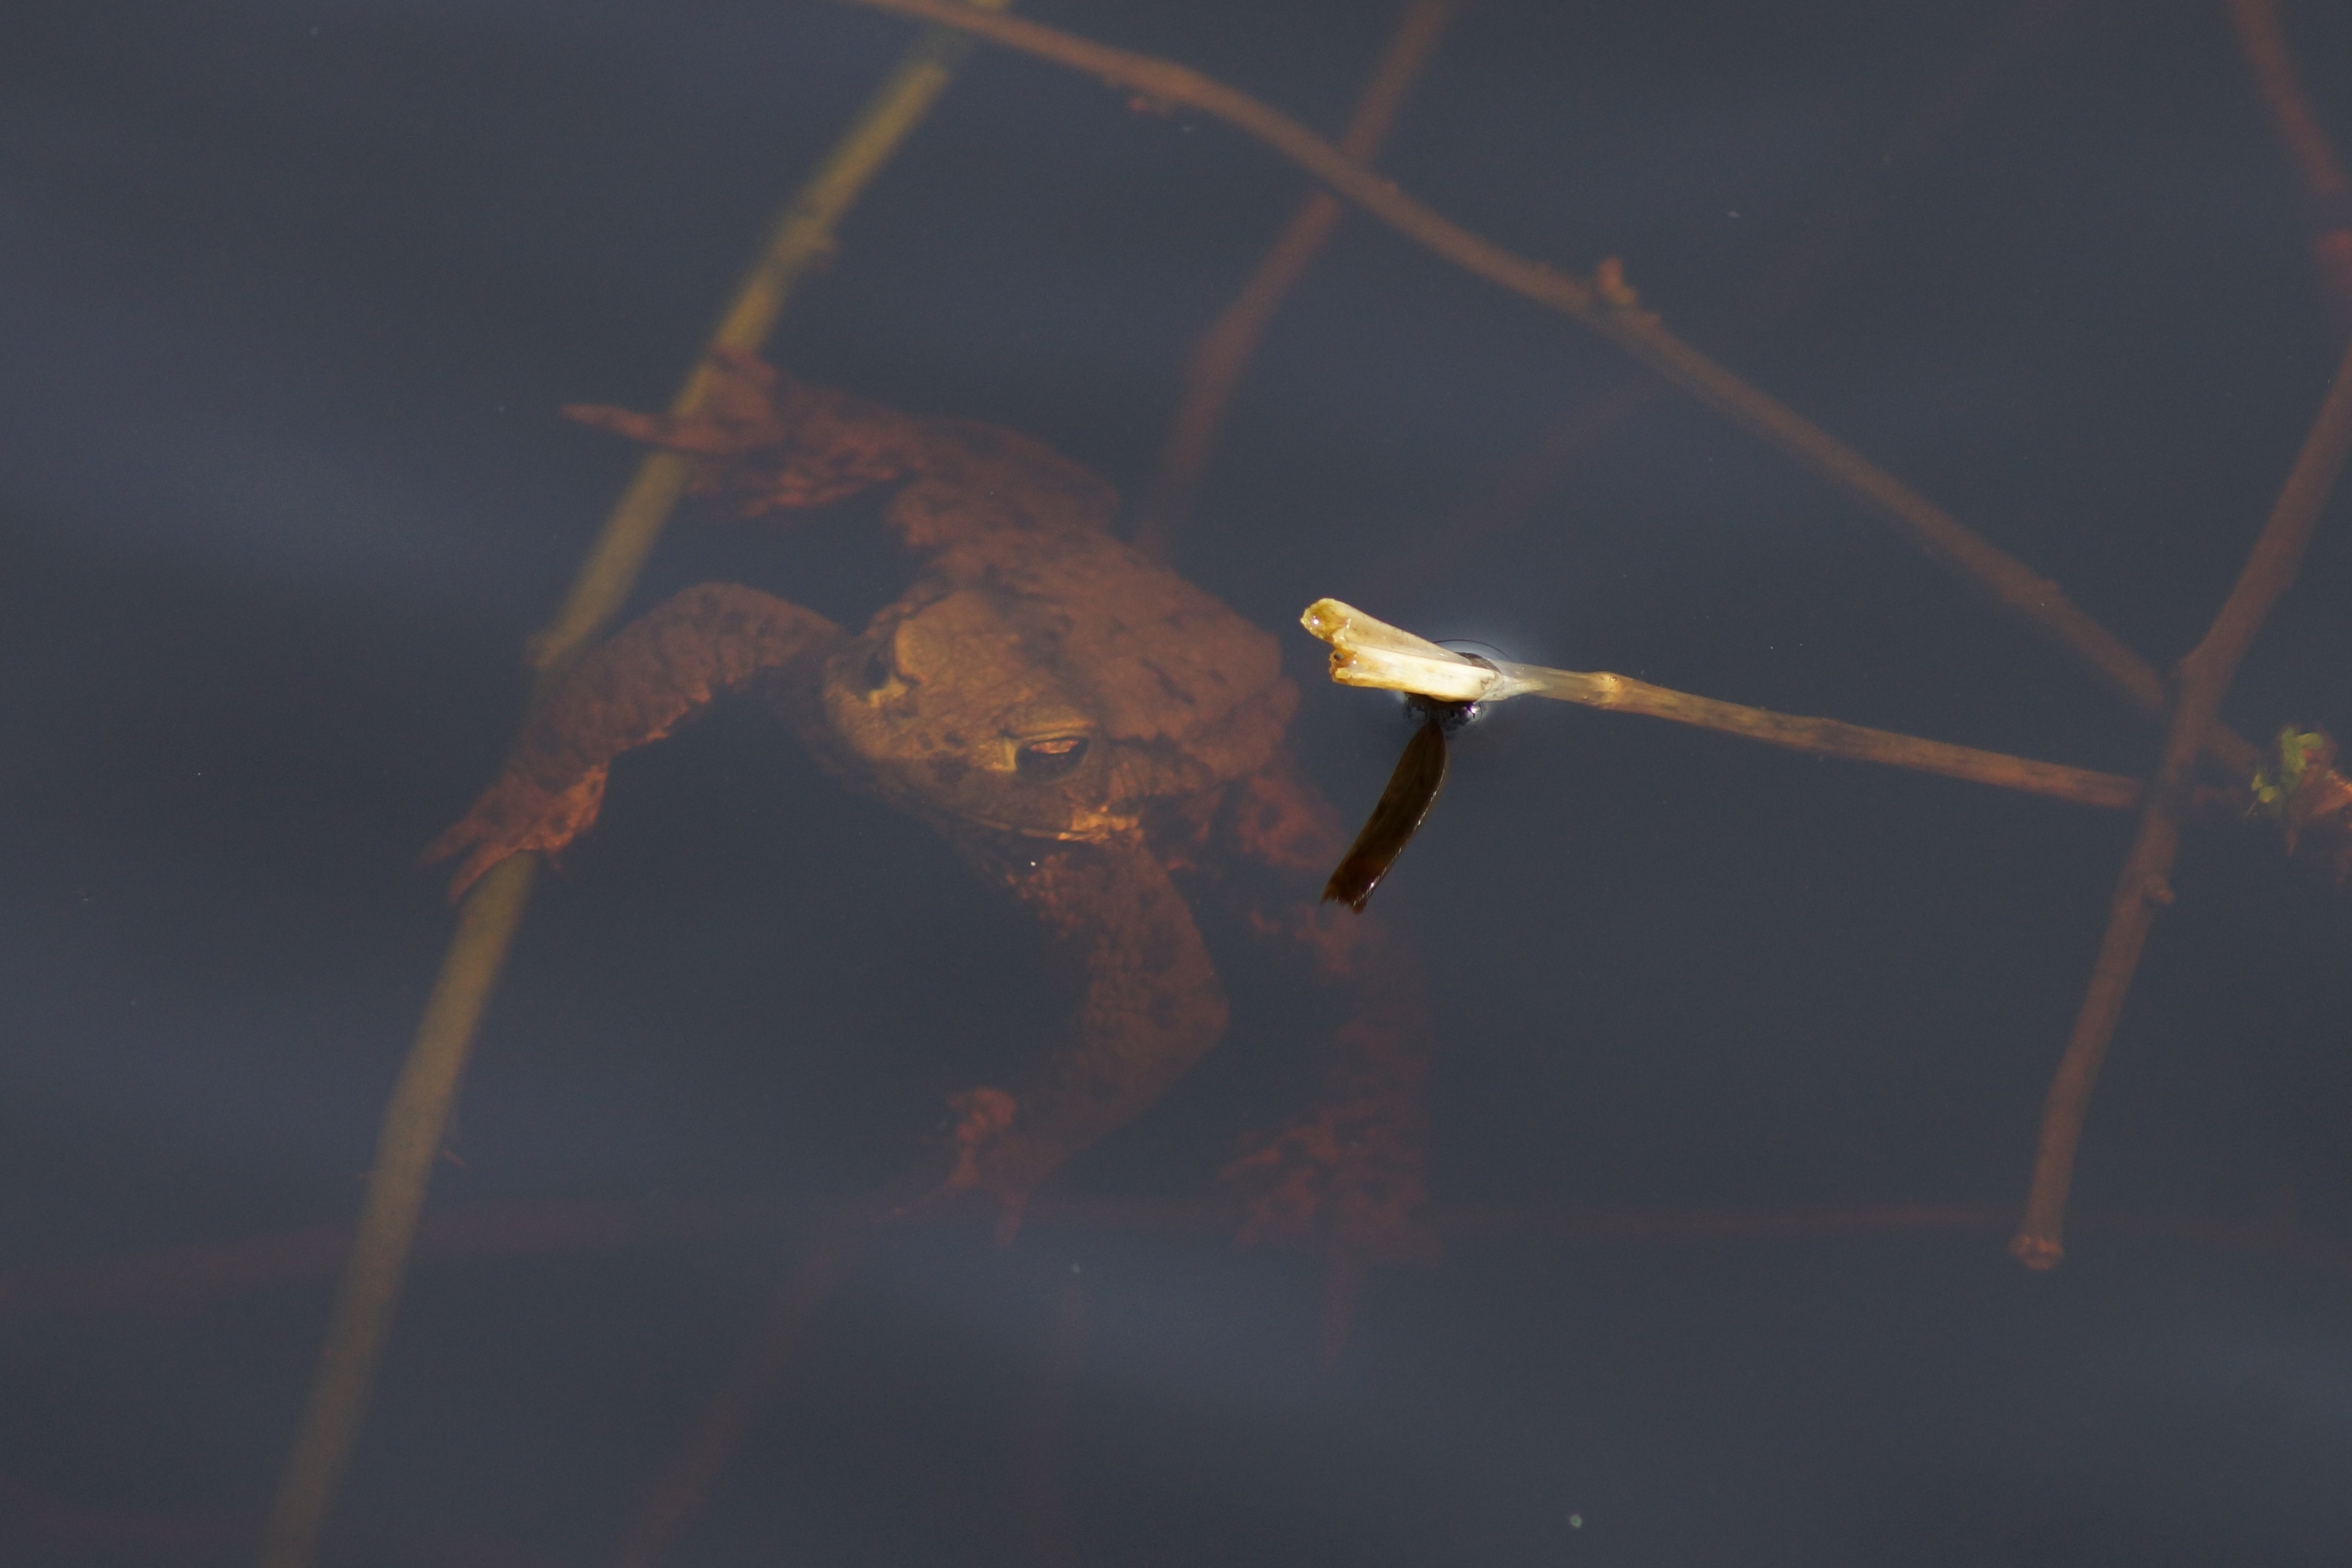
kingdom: Animalia
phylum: Chordata
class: Amphibia
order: Anura
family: Bufonidae
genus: Bufo
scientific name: Bufo bufo
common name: Skrubtudse
